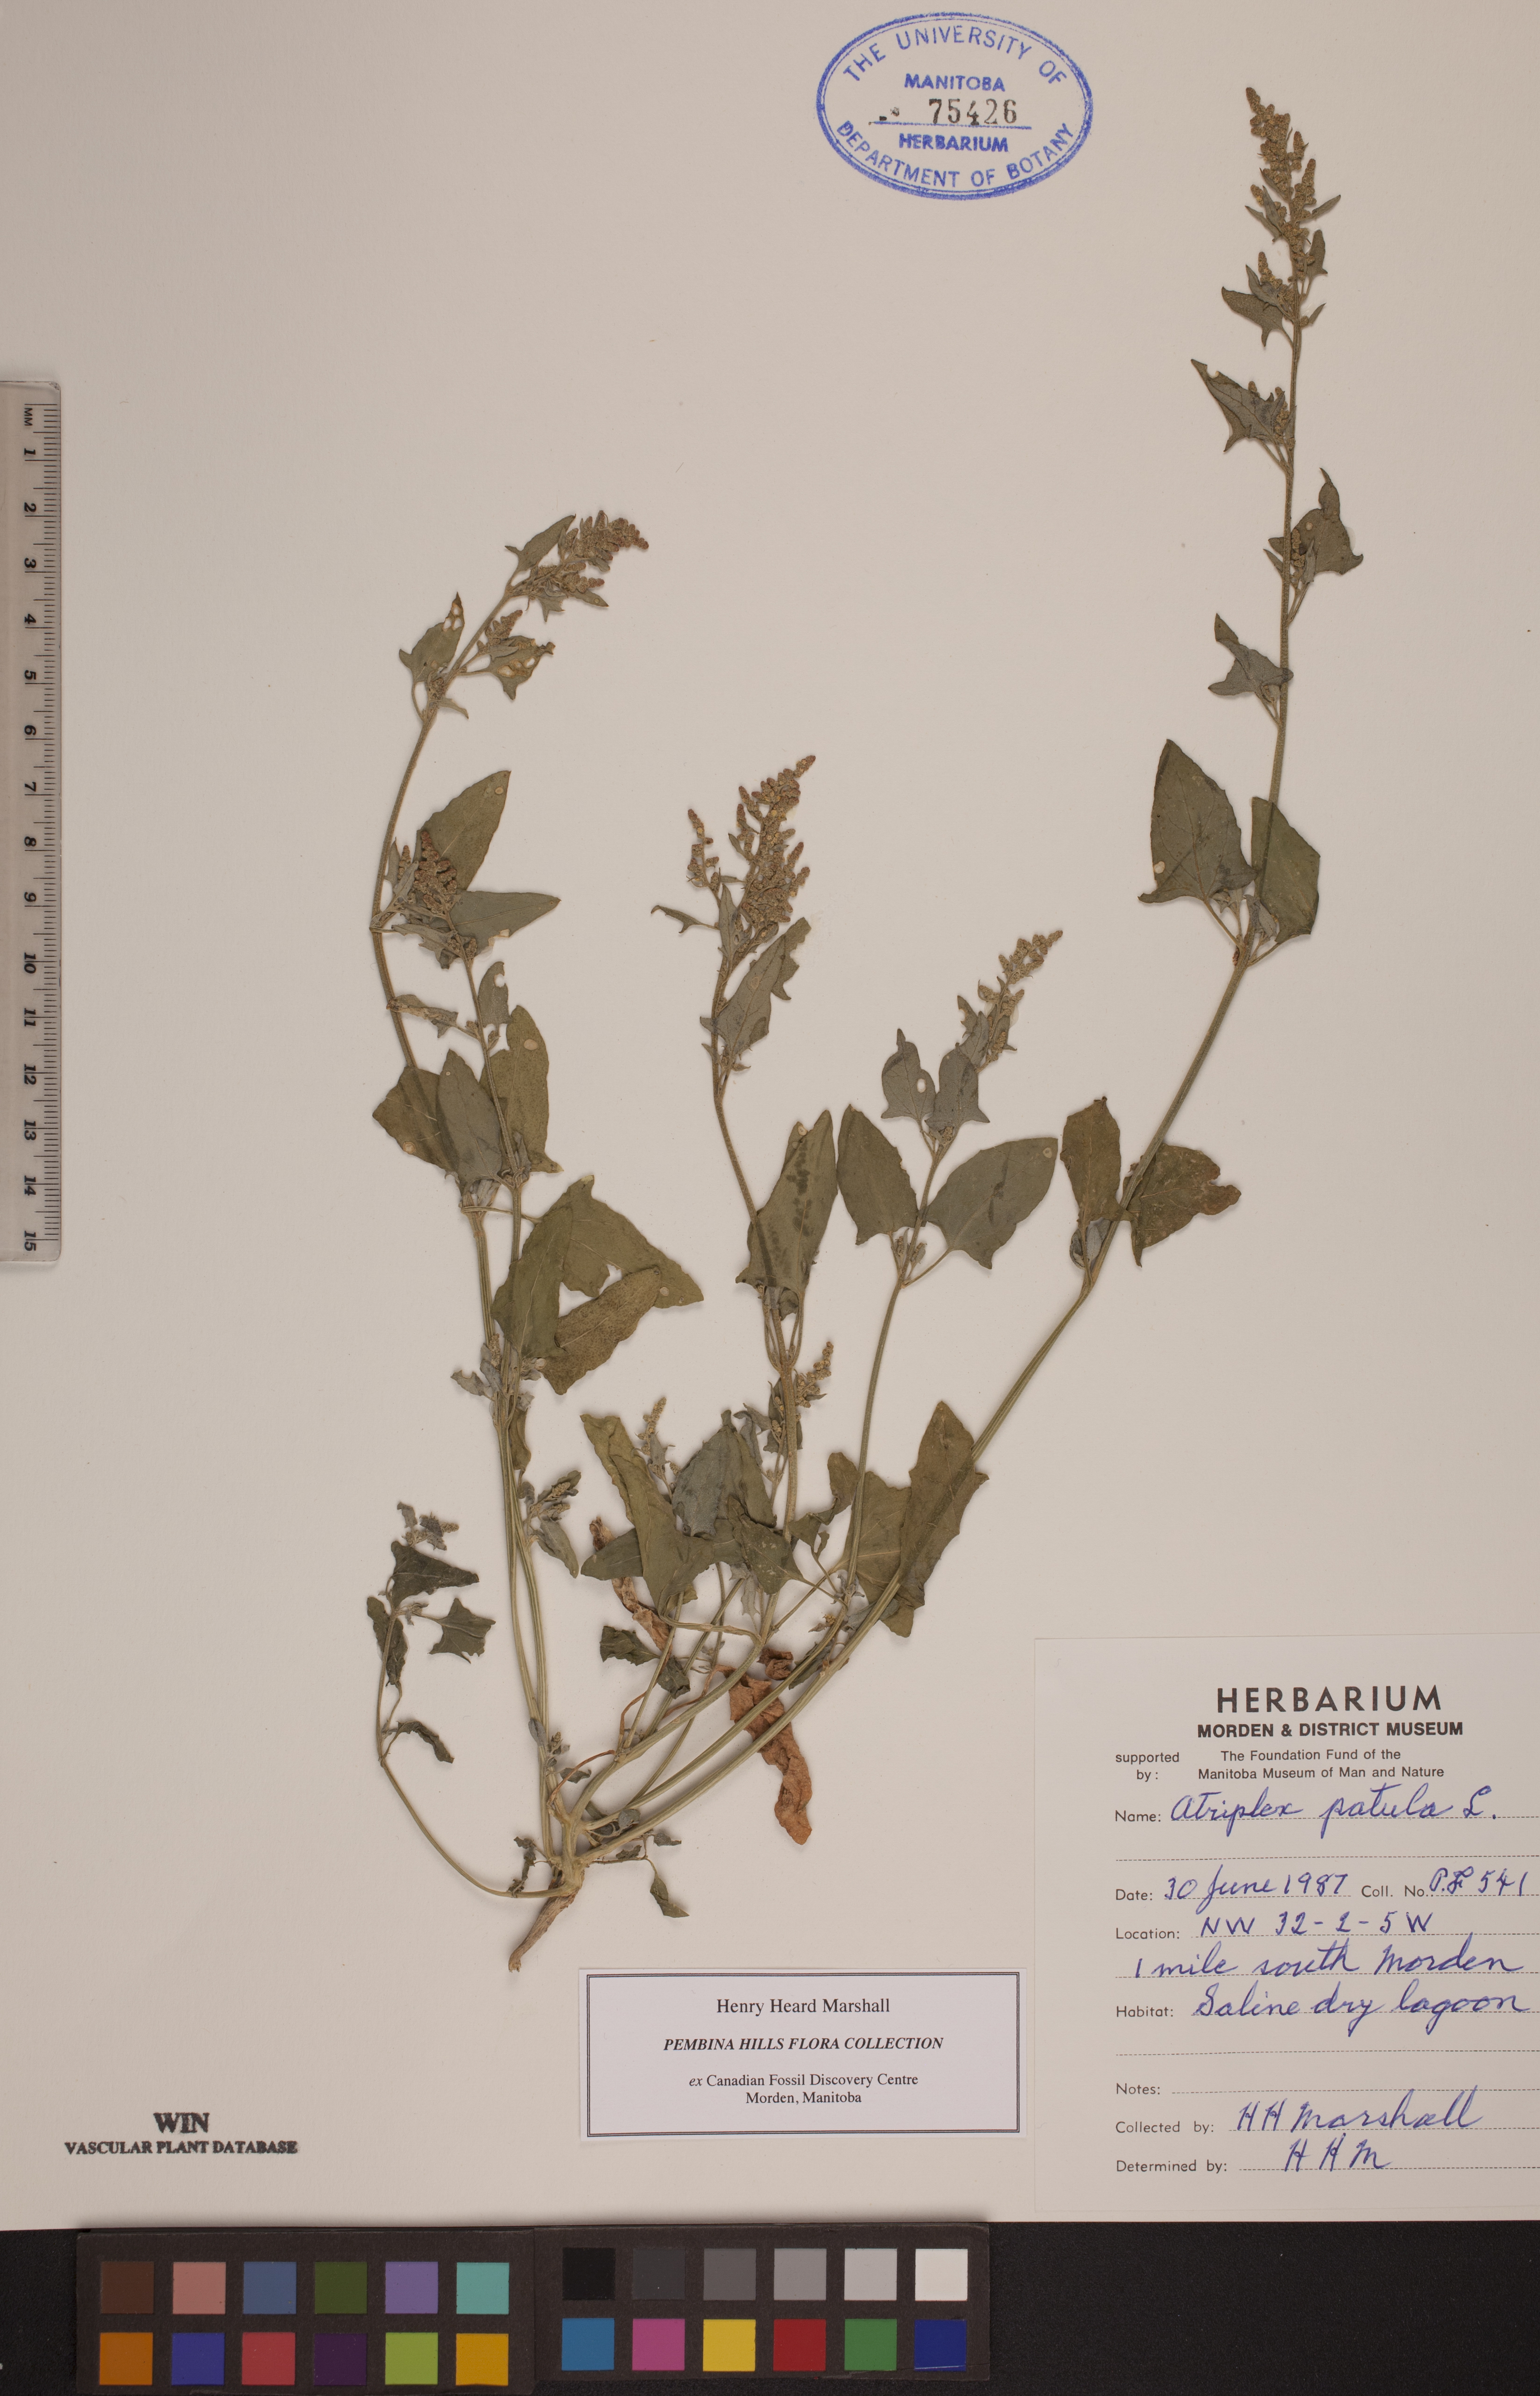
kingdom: Plantae
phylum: Tracheophyta
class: Magnoliopsida
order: Caryophyllales
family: Amaranthaceae
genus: Atriplex
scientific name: Atriplex patula
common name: Common orache
